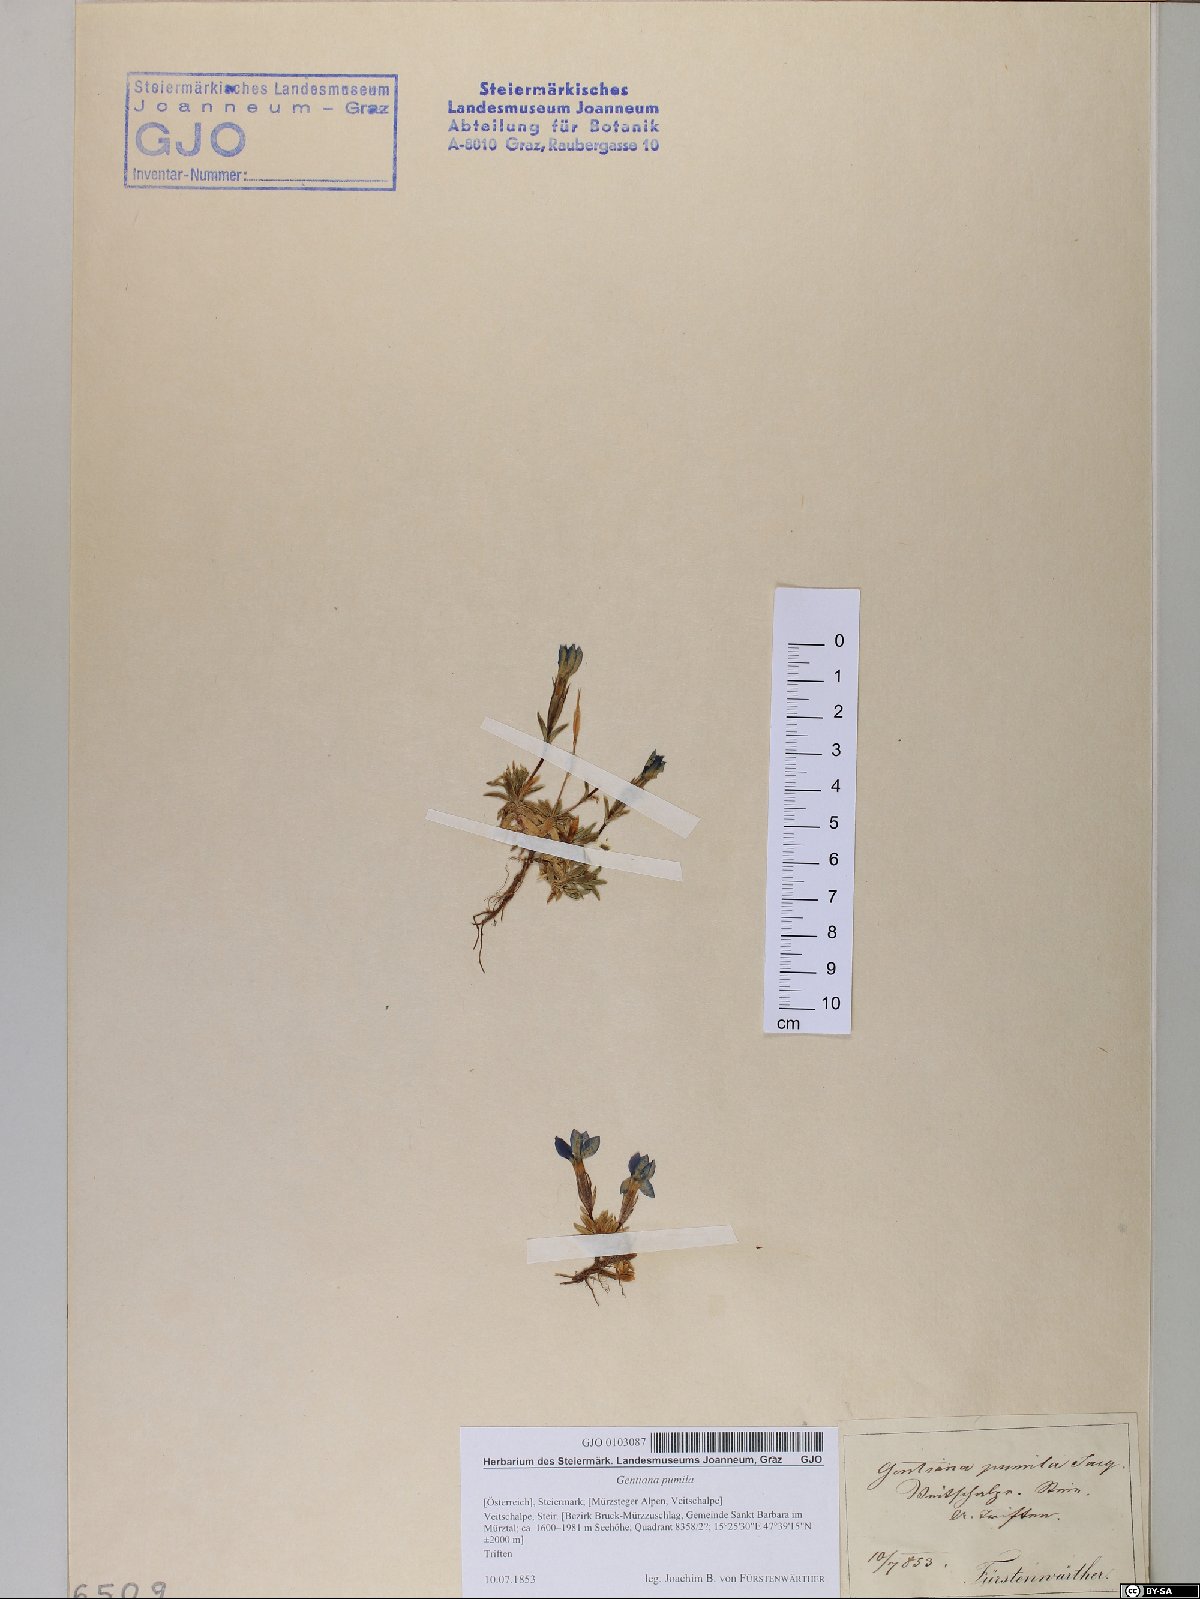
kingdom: Plantae
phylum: Tracheophyta
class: Magnoliopsida
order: Gentianales
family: Gentianaceae
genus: Gentiana
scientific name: Gentiana pumila
